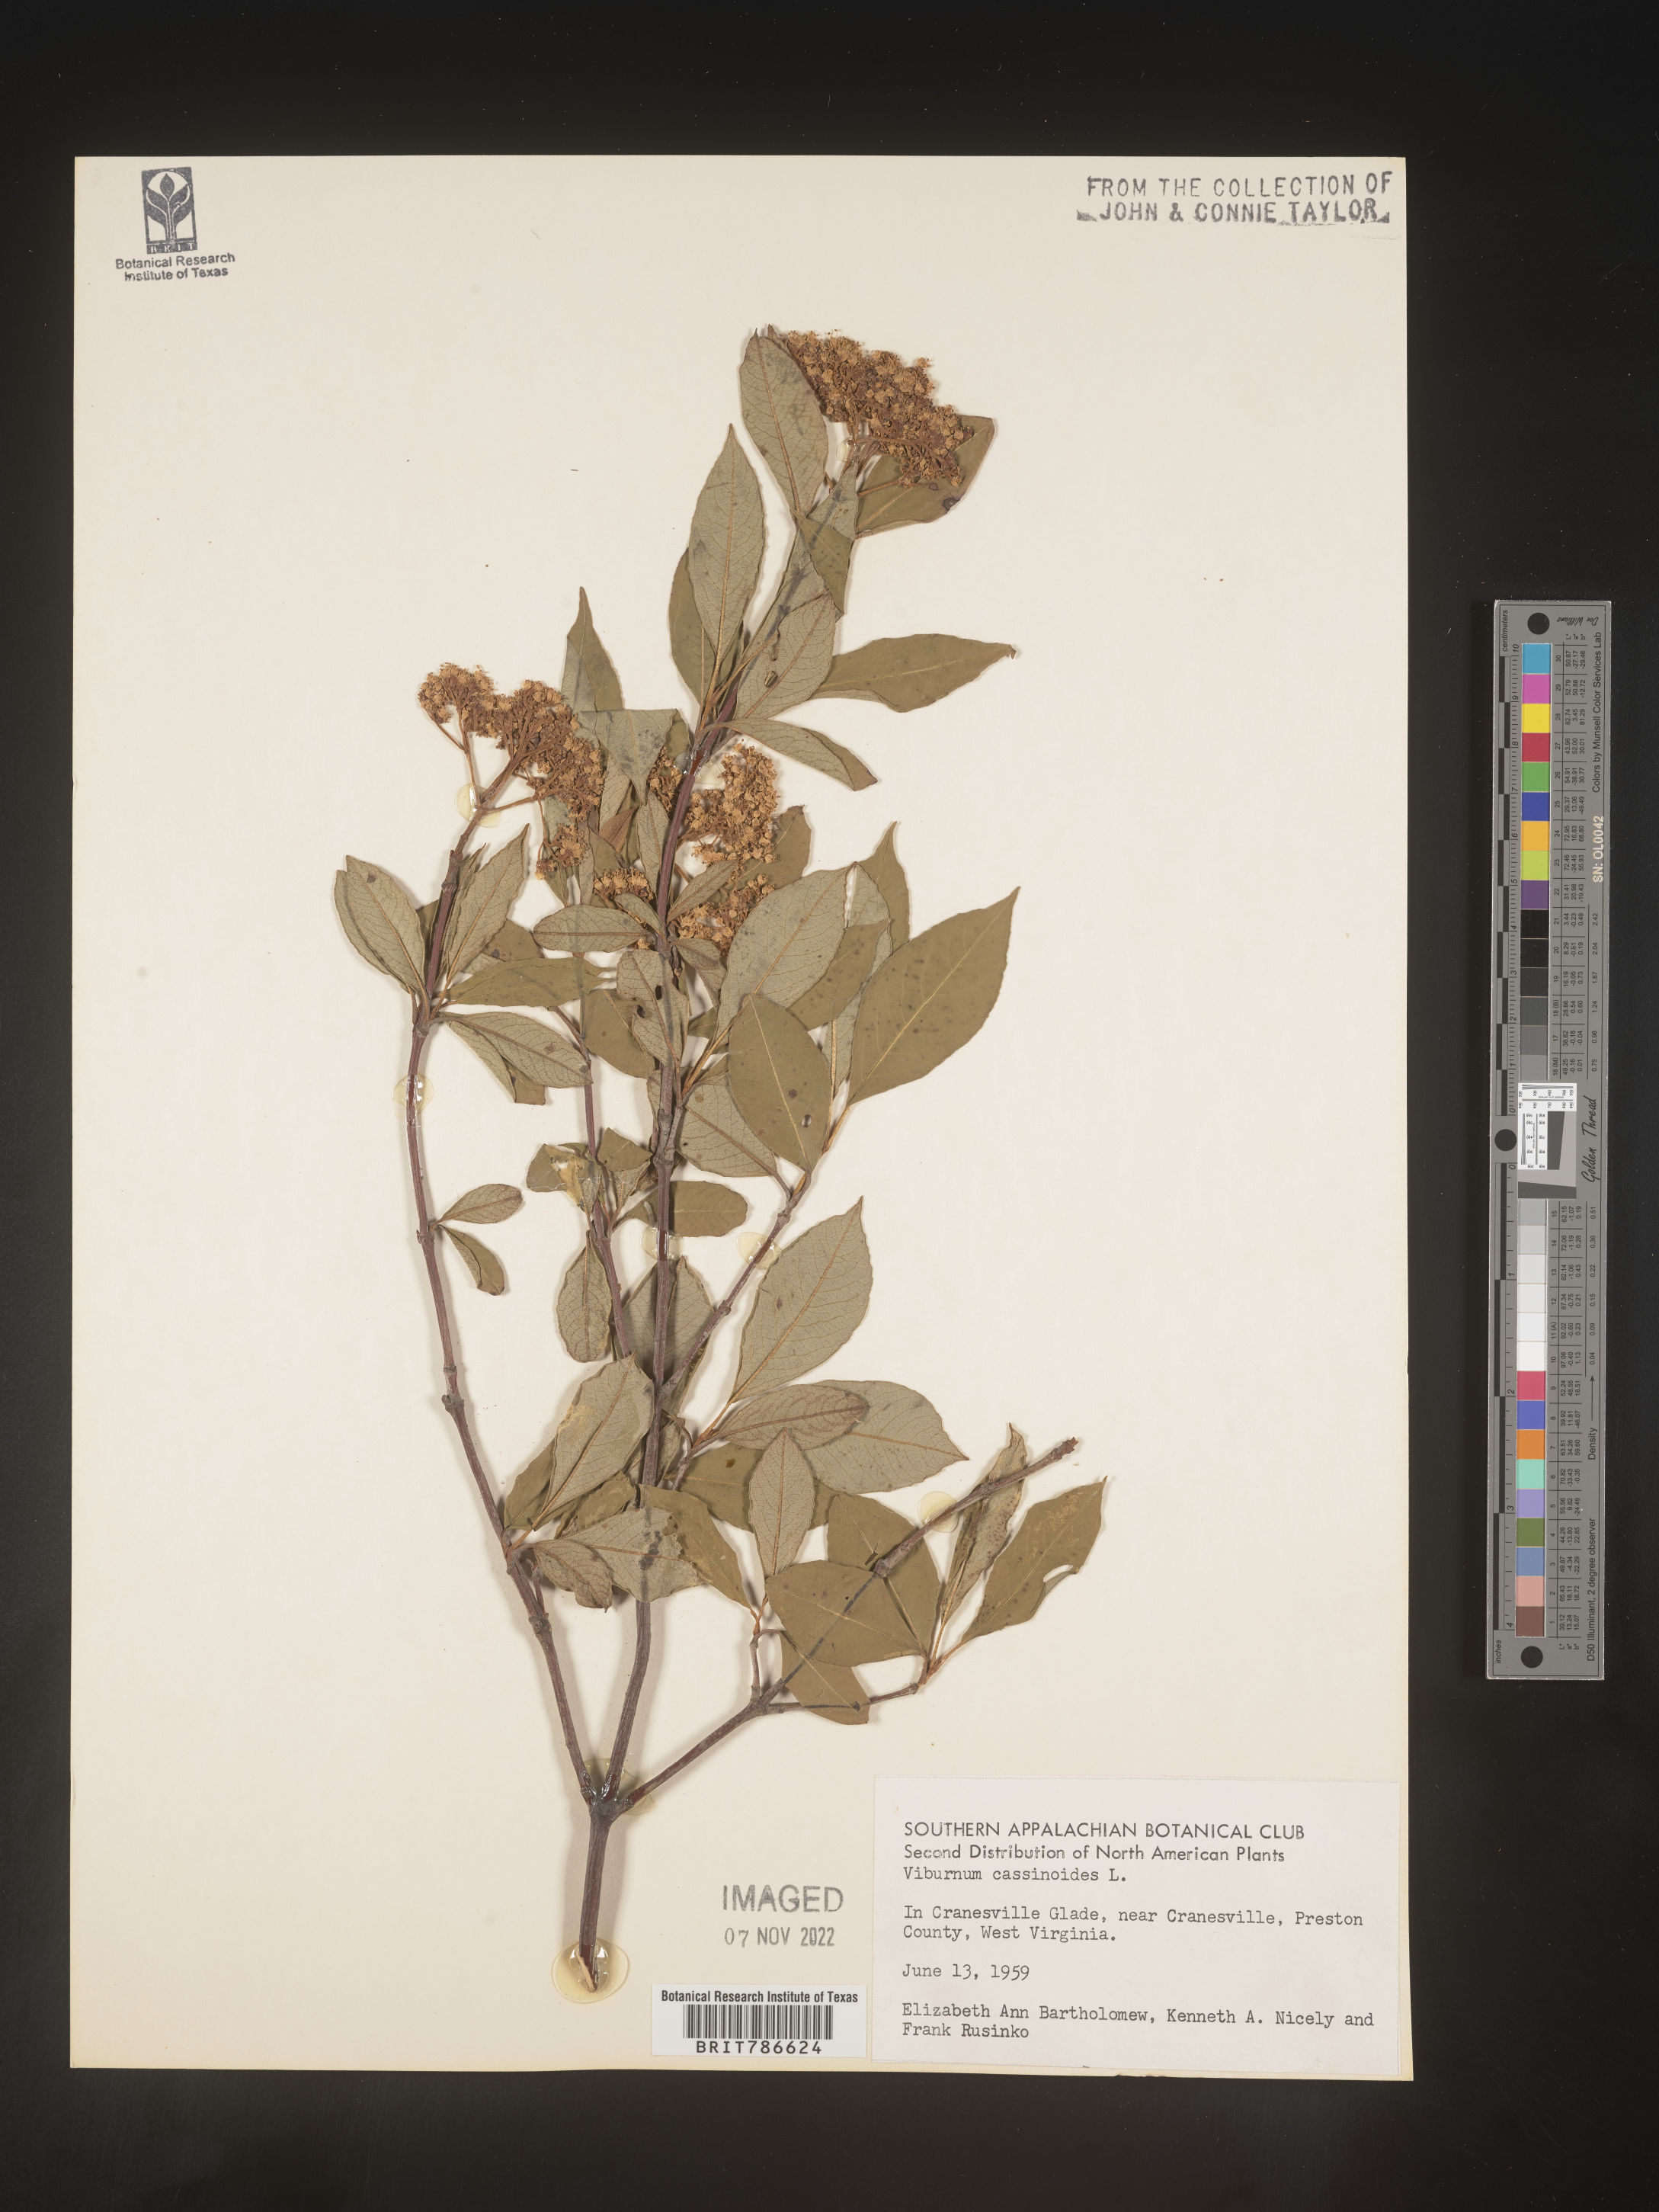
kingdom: Plantae
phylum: Tracheophyta
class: Magnoliopsida
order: Dipsacales
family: Viburnaceae
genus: Viburnum
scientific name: Viburnum cassinoides
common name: Swamp haw
